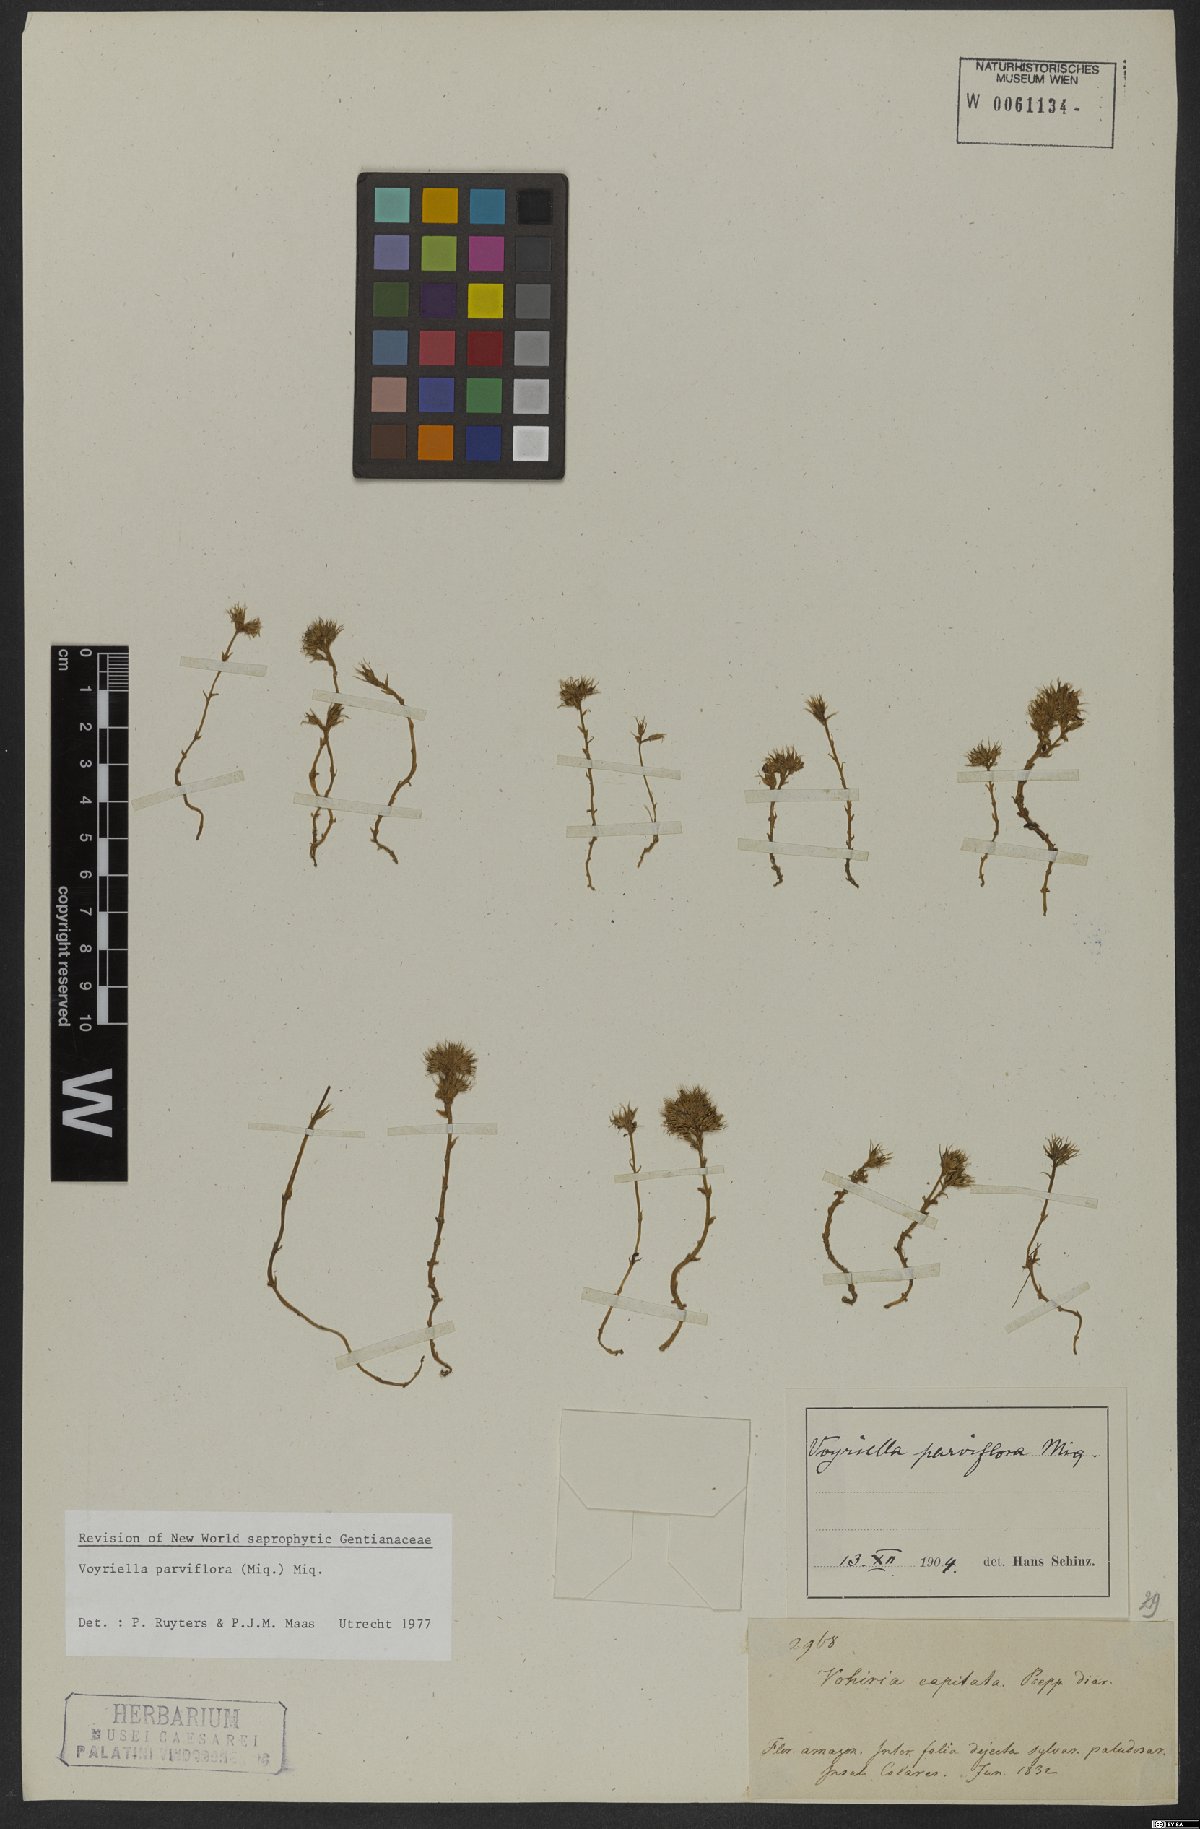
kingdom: Plantae
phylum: Tracheophyta
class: Magnoliopsida
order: Gentianales
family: Gentianaceae
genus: Voyriella
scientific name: Voyriella parviflora
